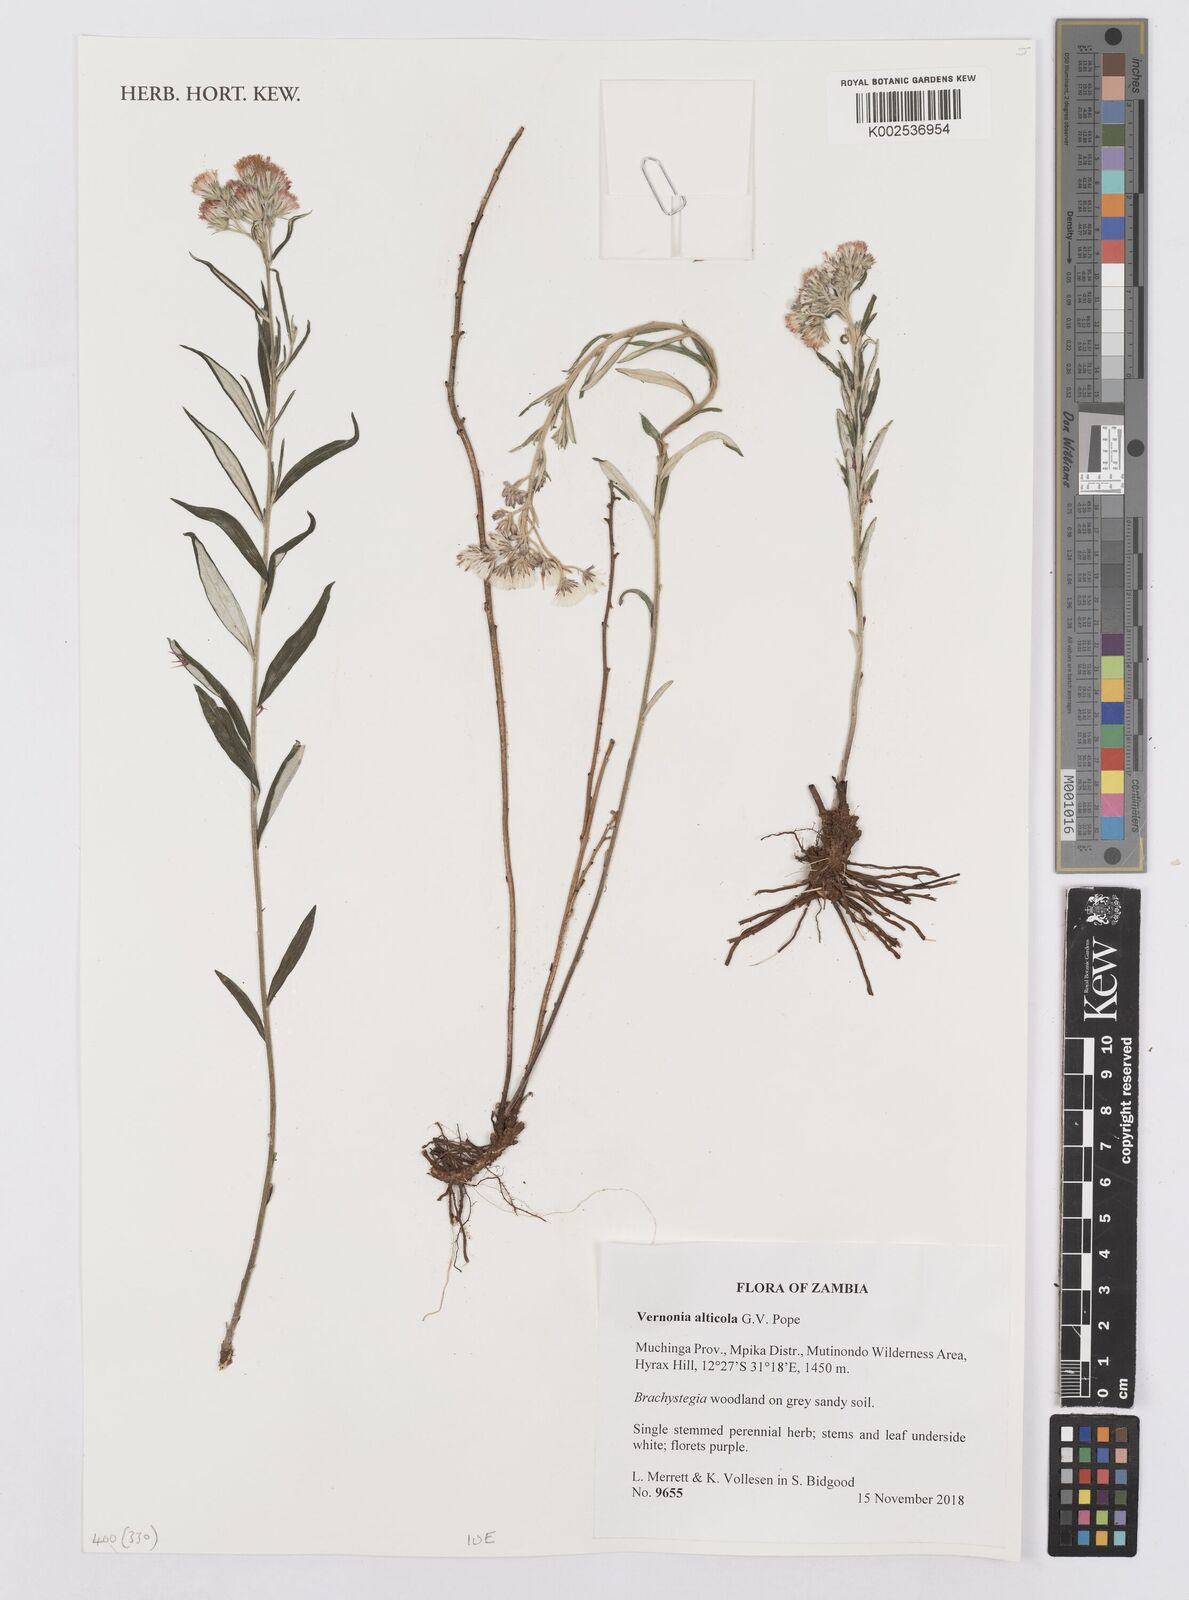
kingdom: Plantae
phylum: Tracheophyta
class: Magnoliopsida
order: Asterales
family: Asteraceae
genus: Vernonia
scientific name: Vernonia alticola
